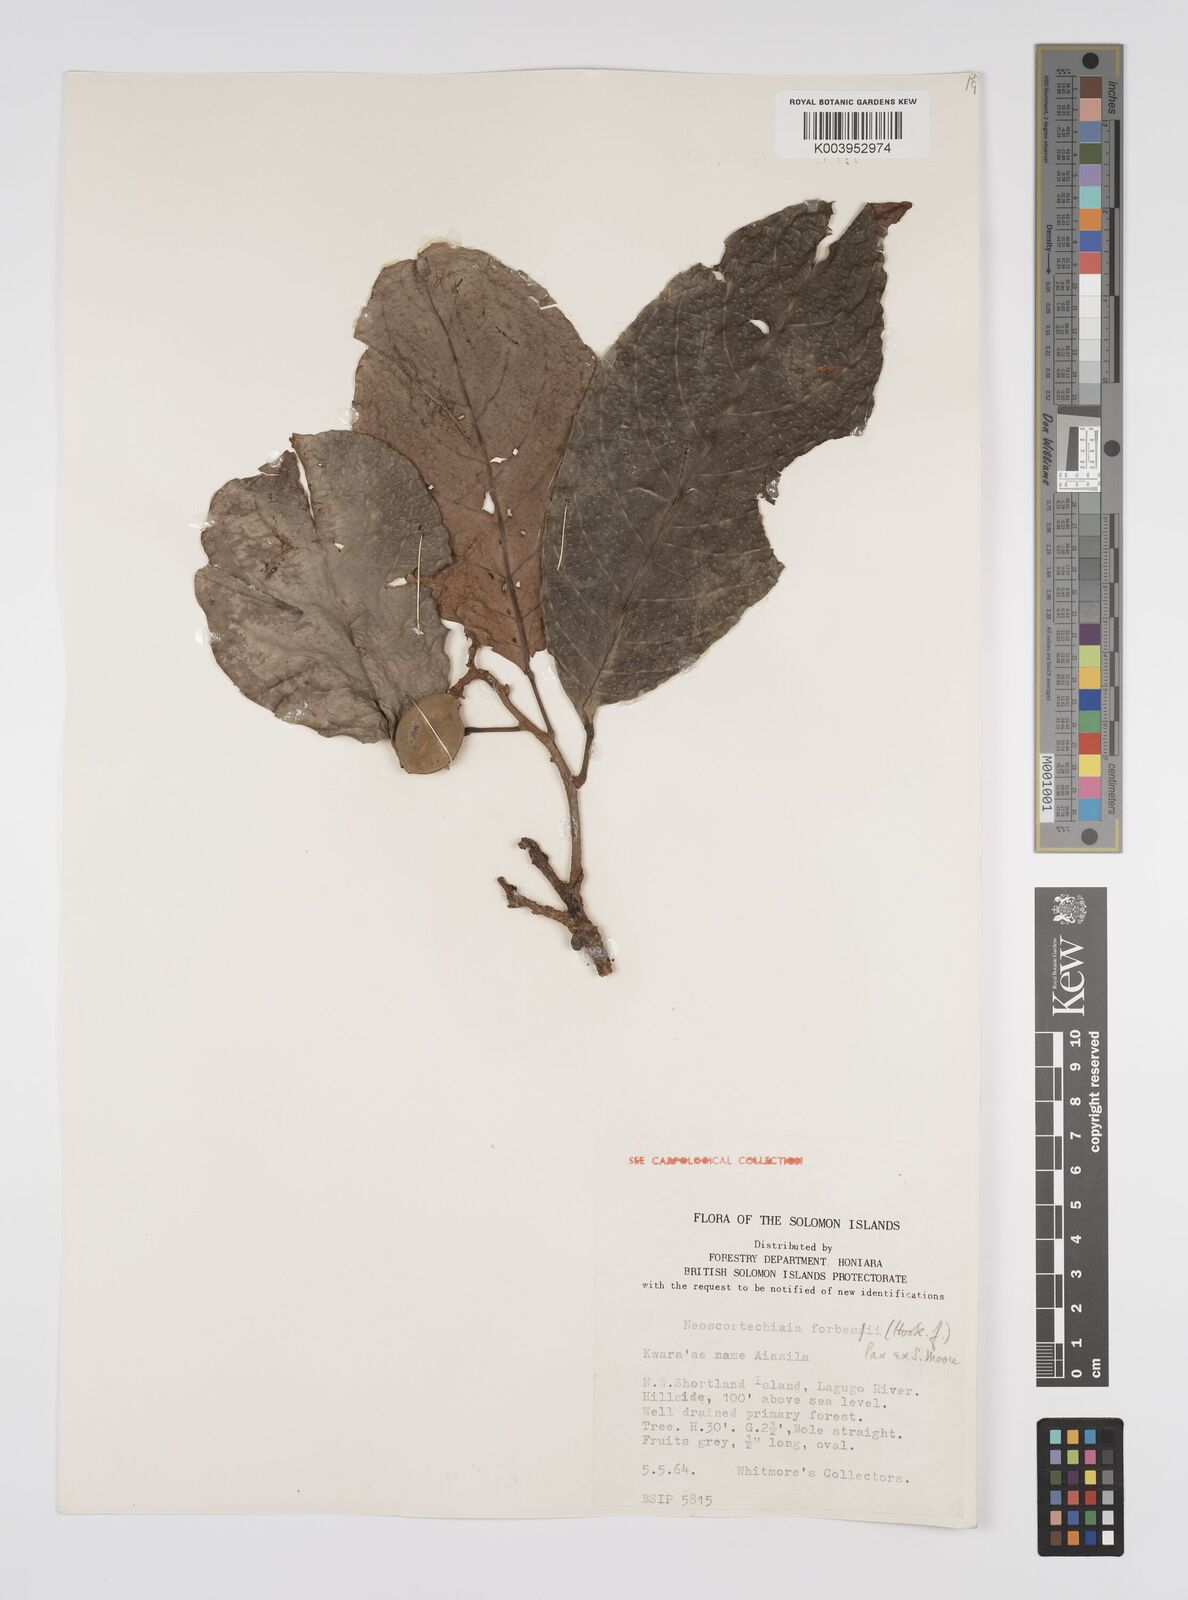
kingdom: Plantae
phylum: Tracheophyta
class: Magnoliopsida
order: Malpighiales
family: Euphorbiaceae
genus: Neoscortechinia
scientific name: Neoscortechinia forbesii
